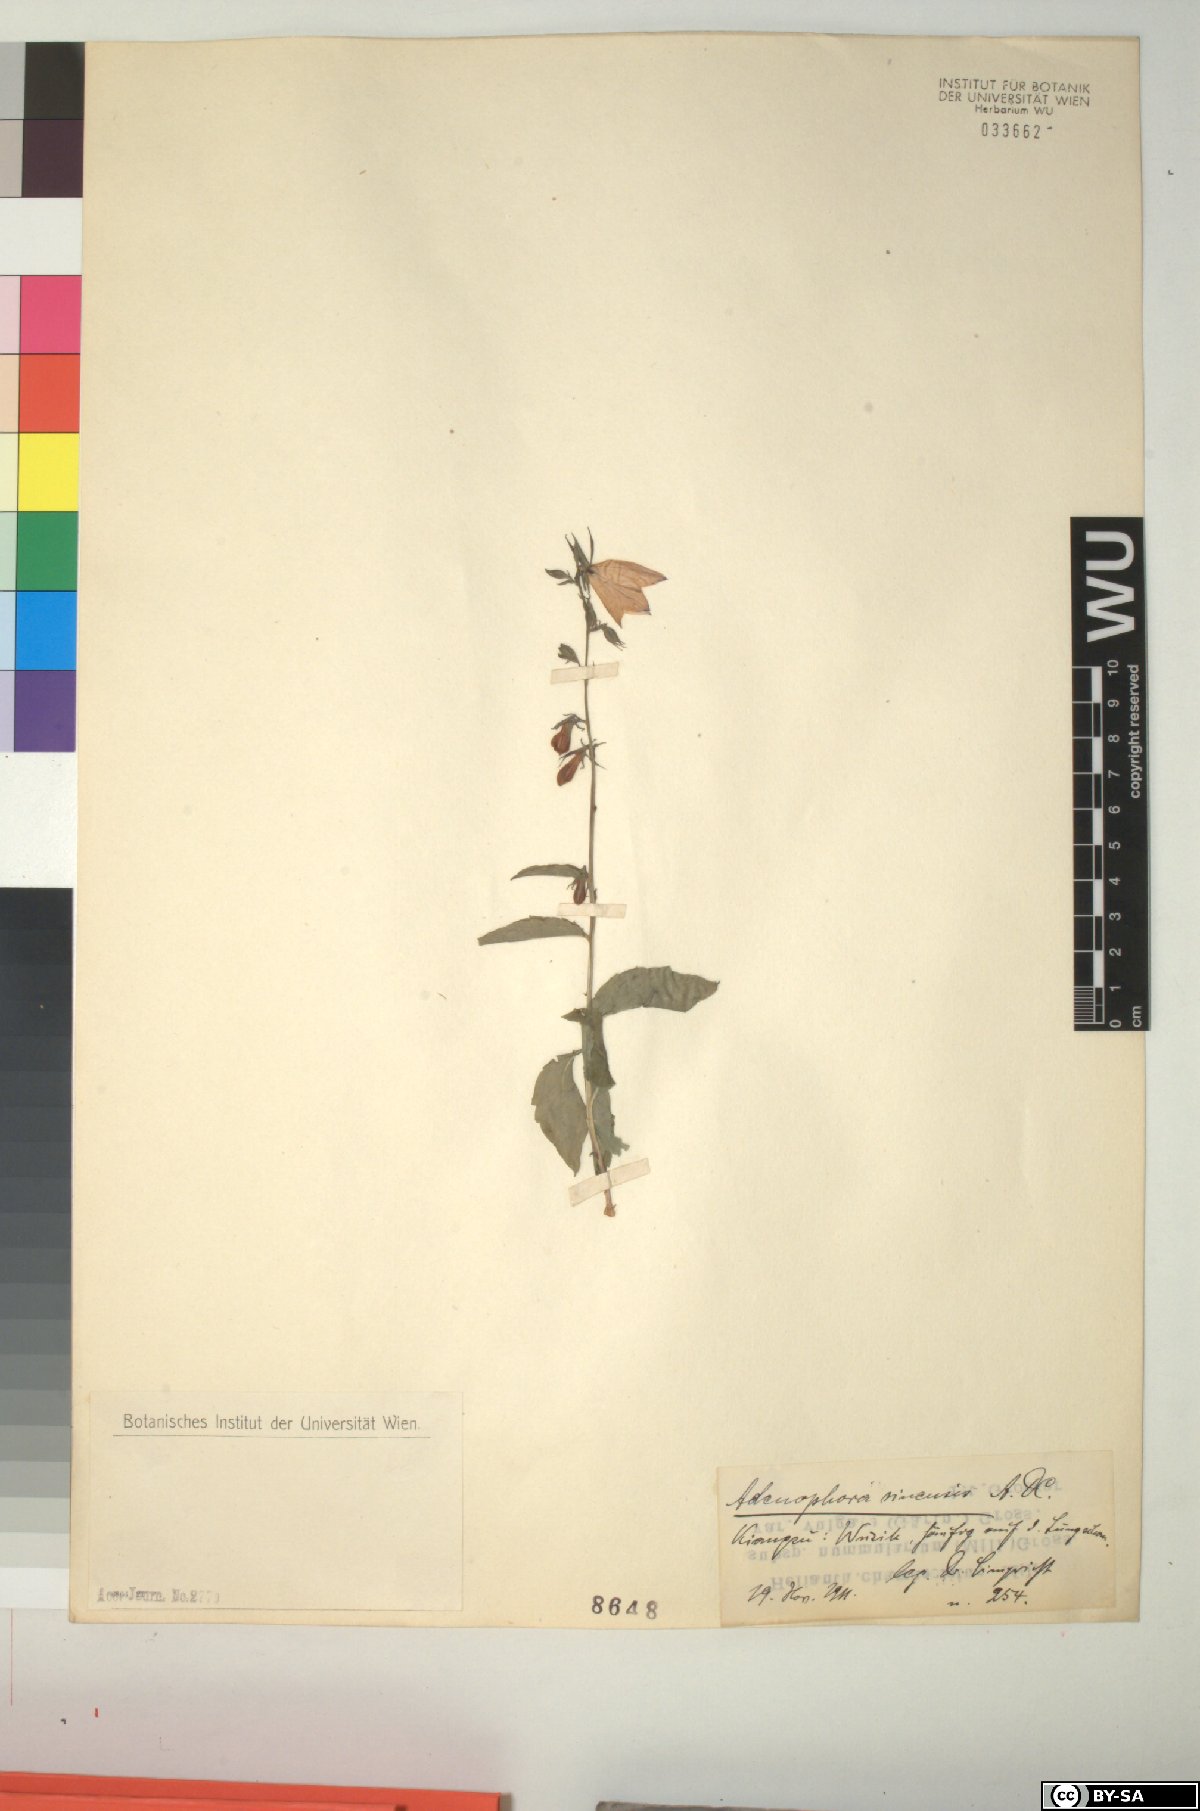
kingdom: Plantae
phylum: Tracheophyta
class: Magnoliopsida
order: Asterales
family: Campanulaceae
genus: Adenophora
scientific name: Adenophora sinensis
